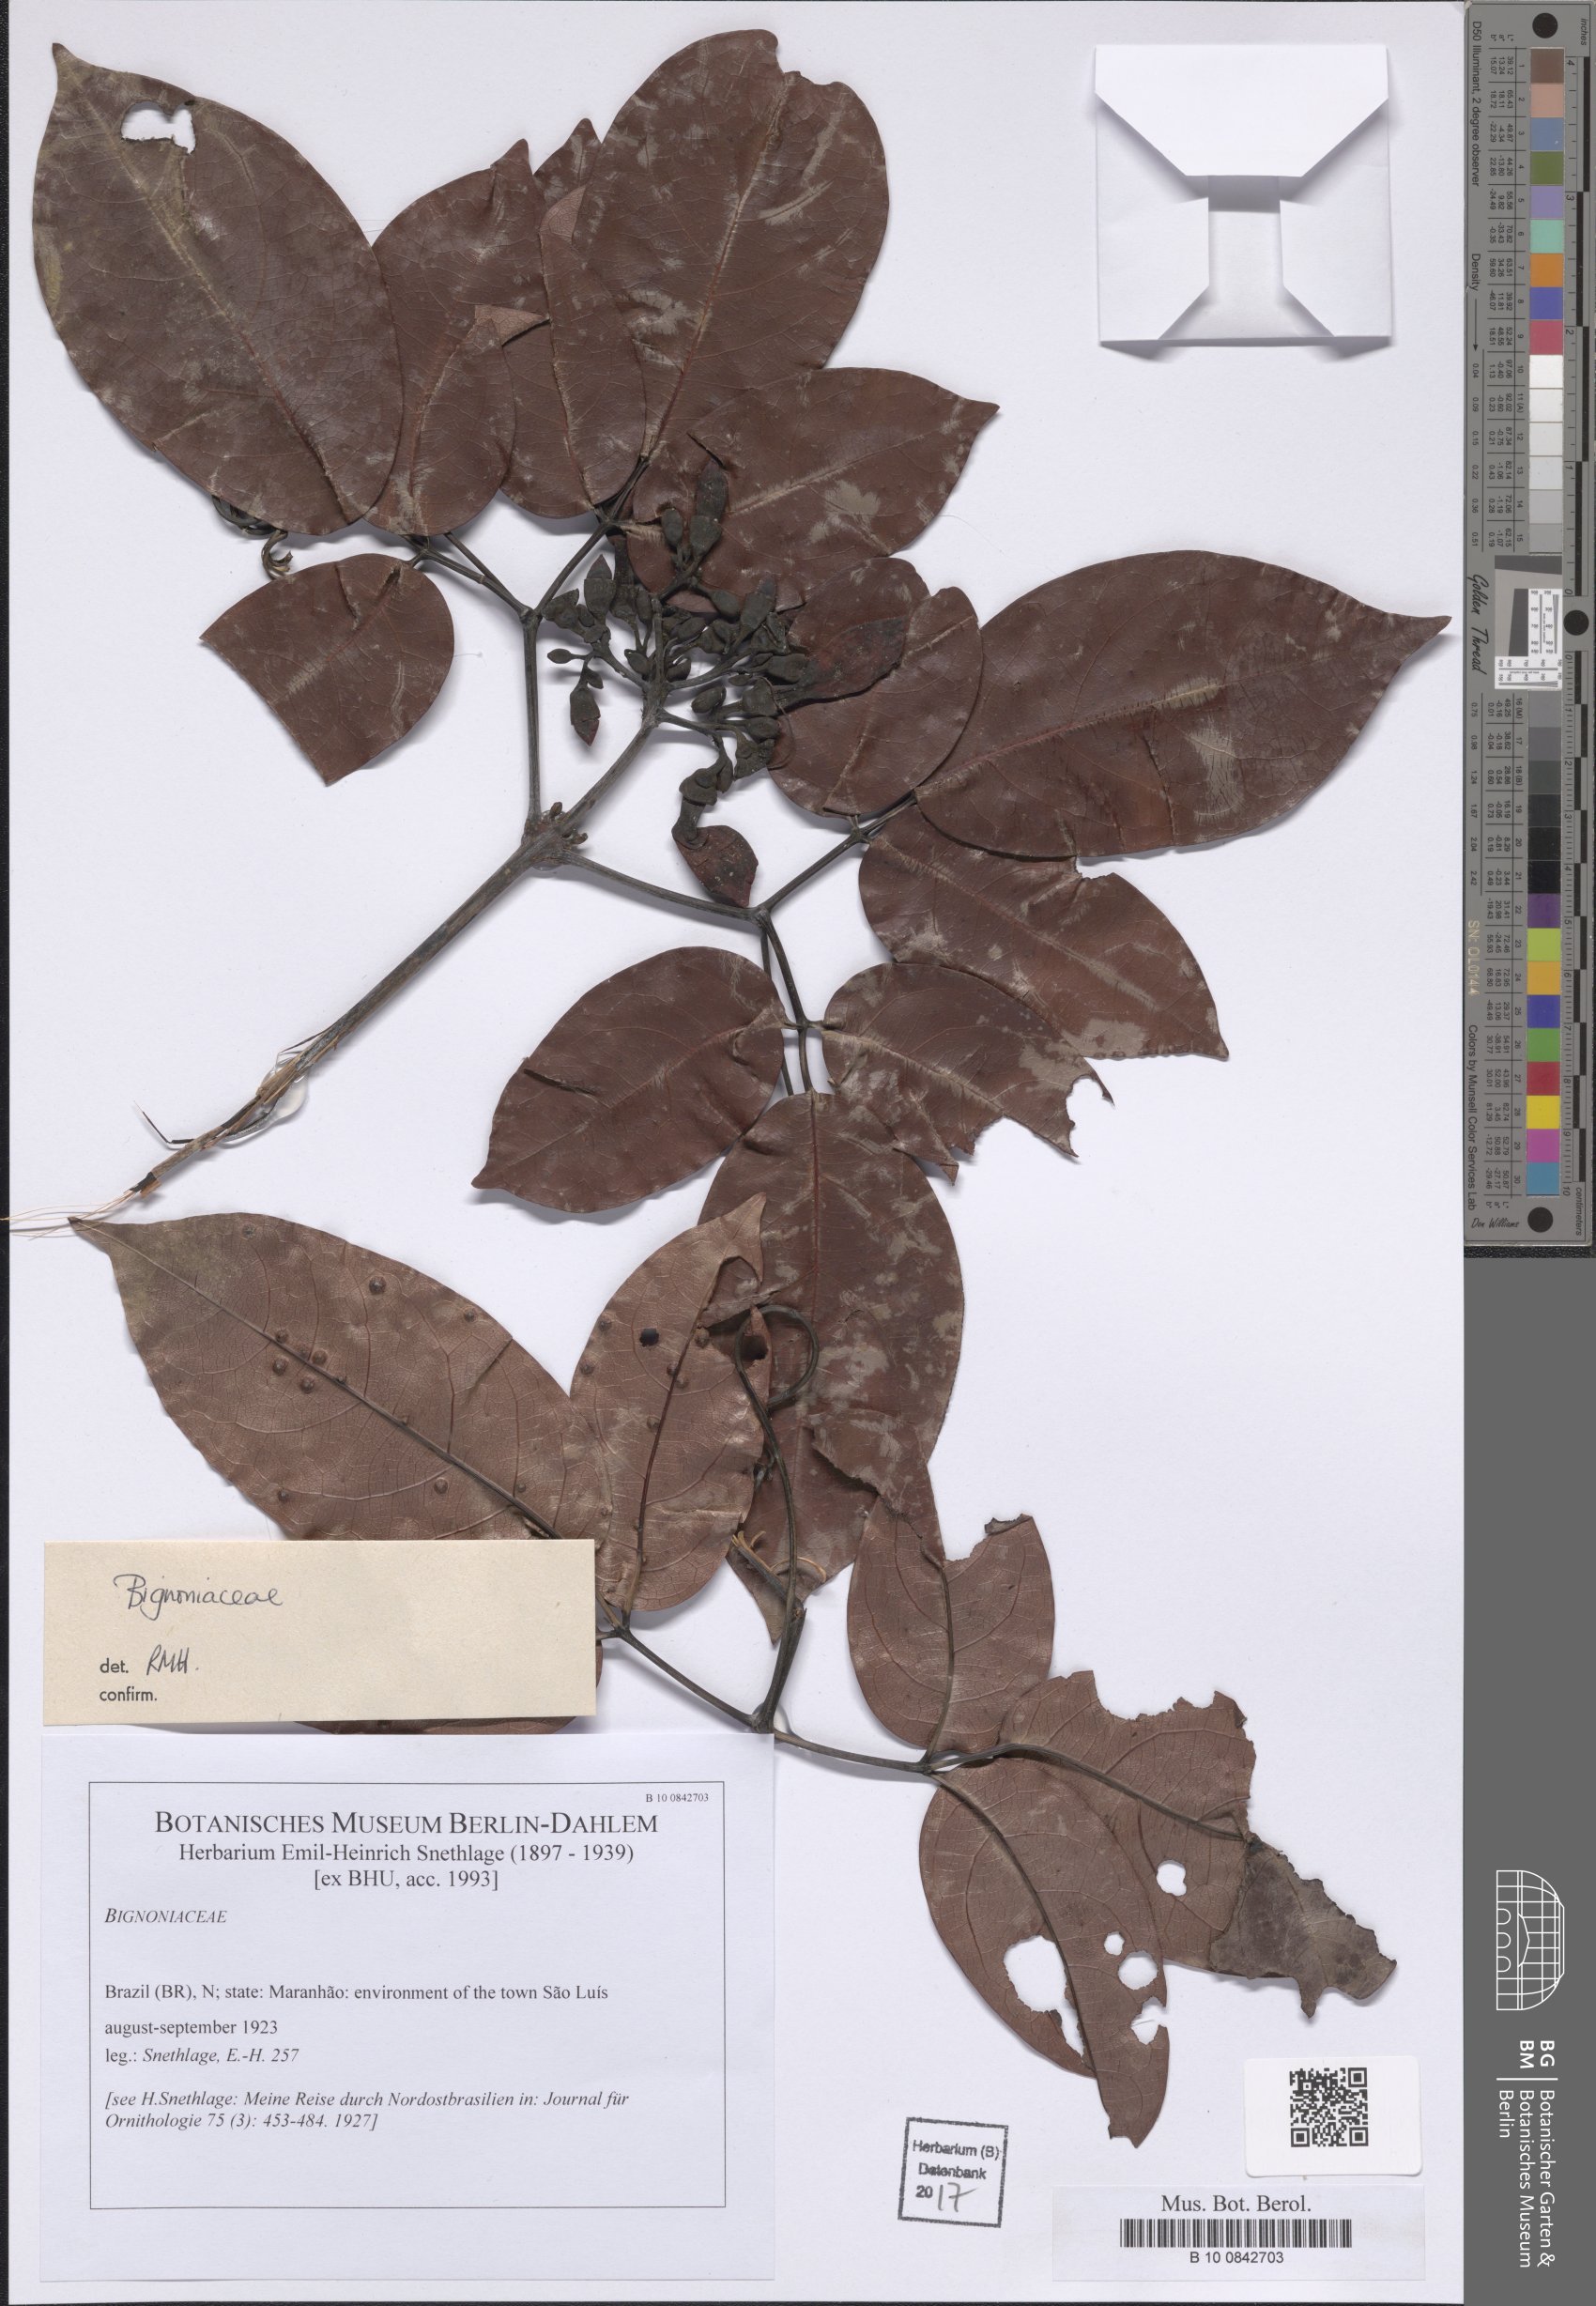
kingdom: Plantae
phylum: Tracheophyta
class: Magnoliopsida
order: Lamiales
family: Bignoniaceae
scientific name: Bignoniaceae
